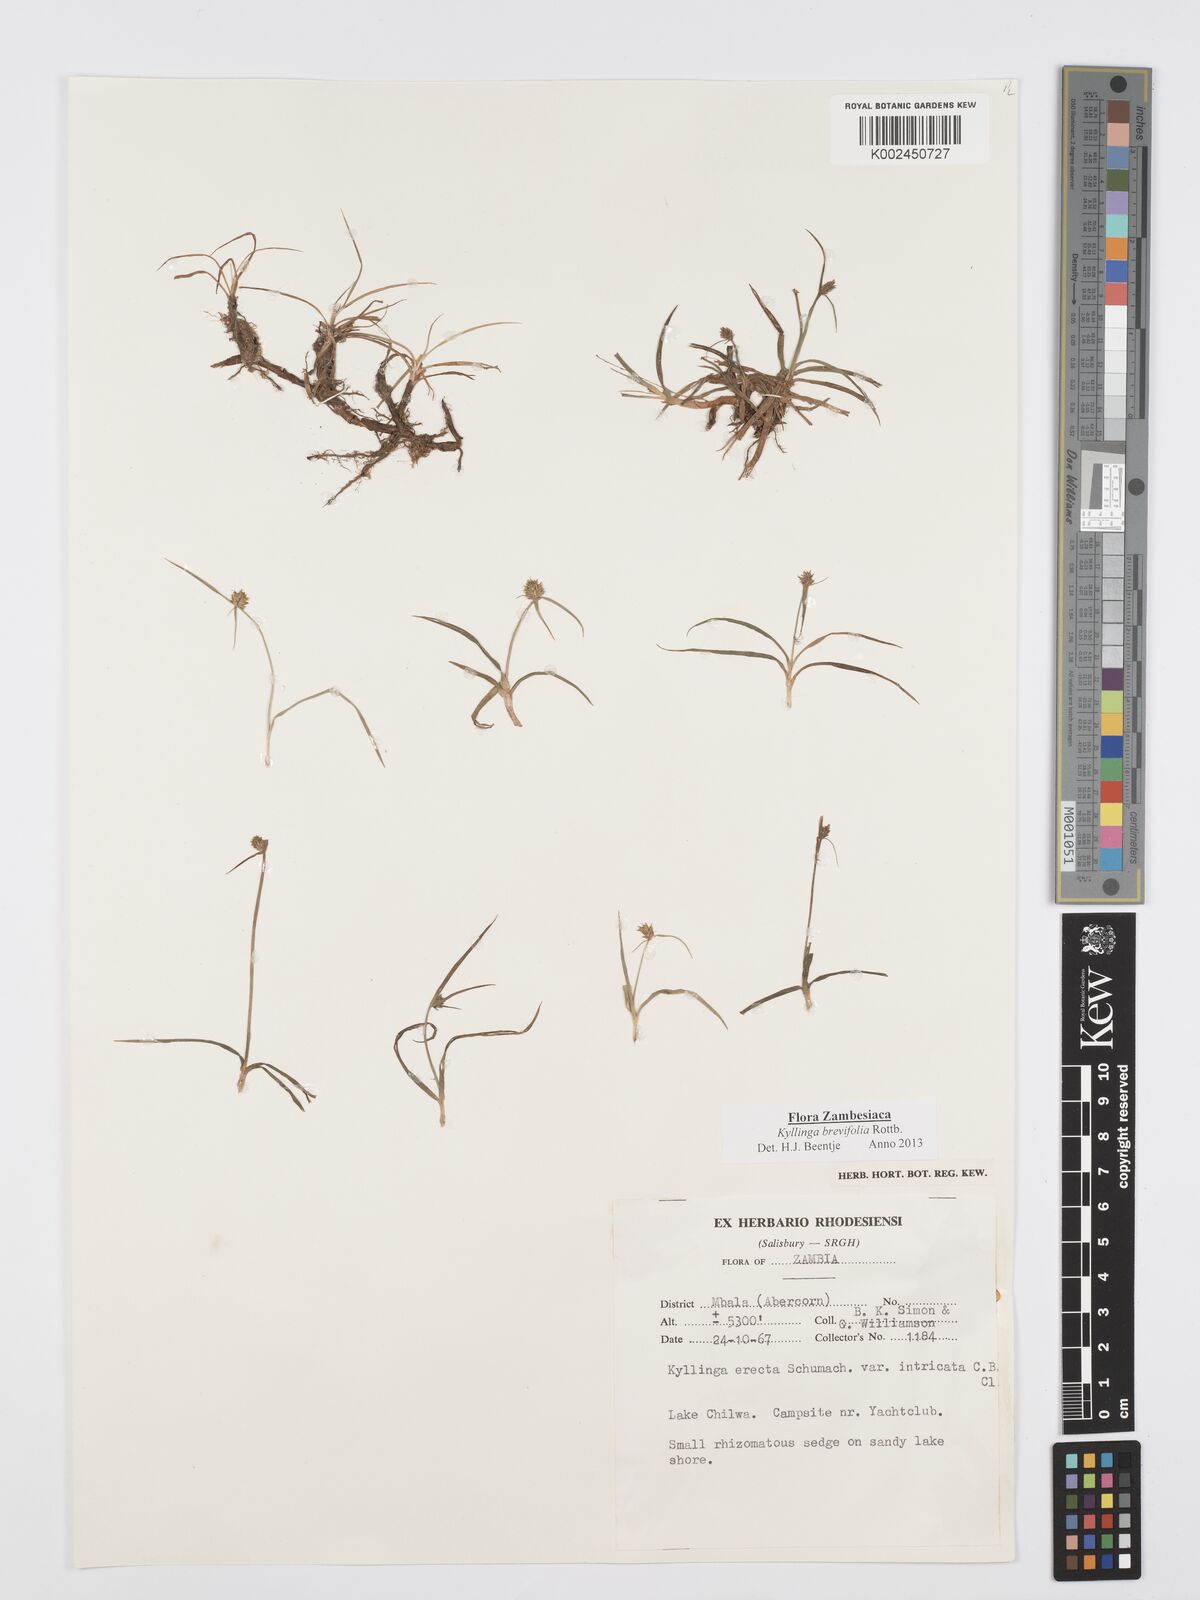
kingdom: Plantae
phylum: Tracheophyta
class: Liliopsida
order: Poales
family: Cyperaceae
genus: Cyperus
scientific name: Cyperus brevifolius
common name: Globe kyllinga
